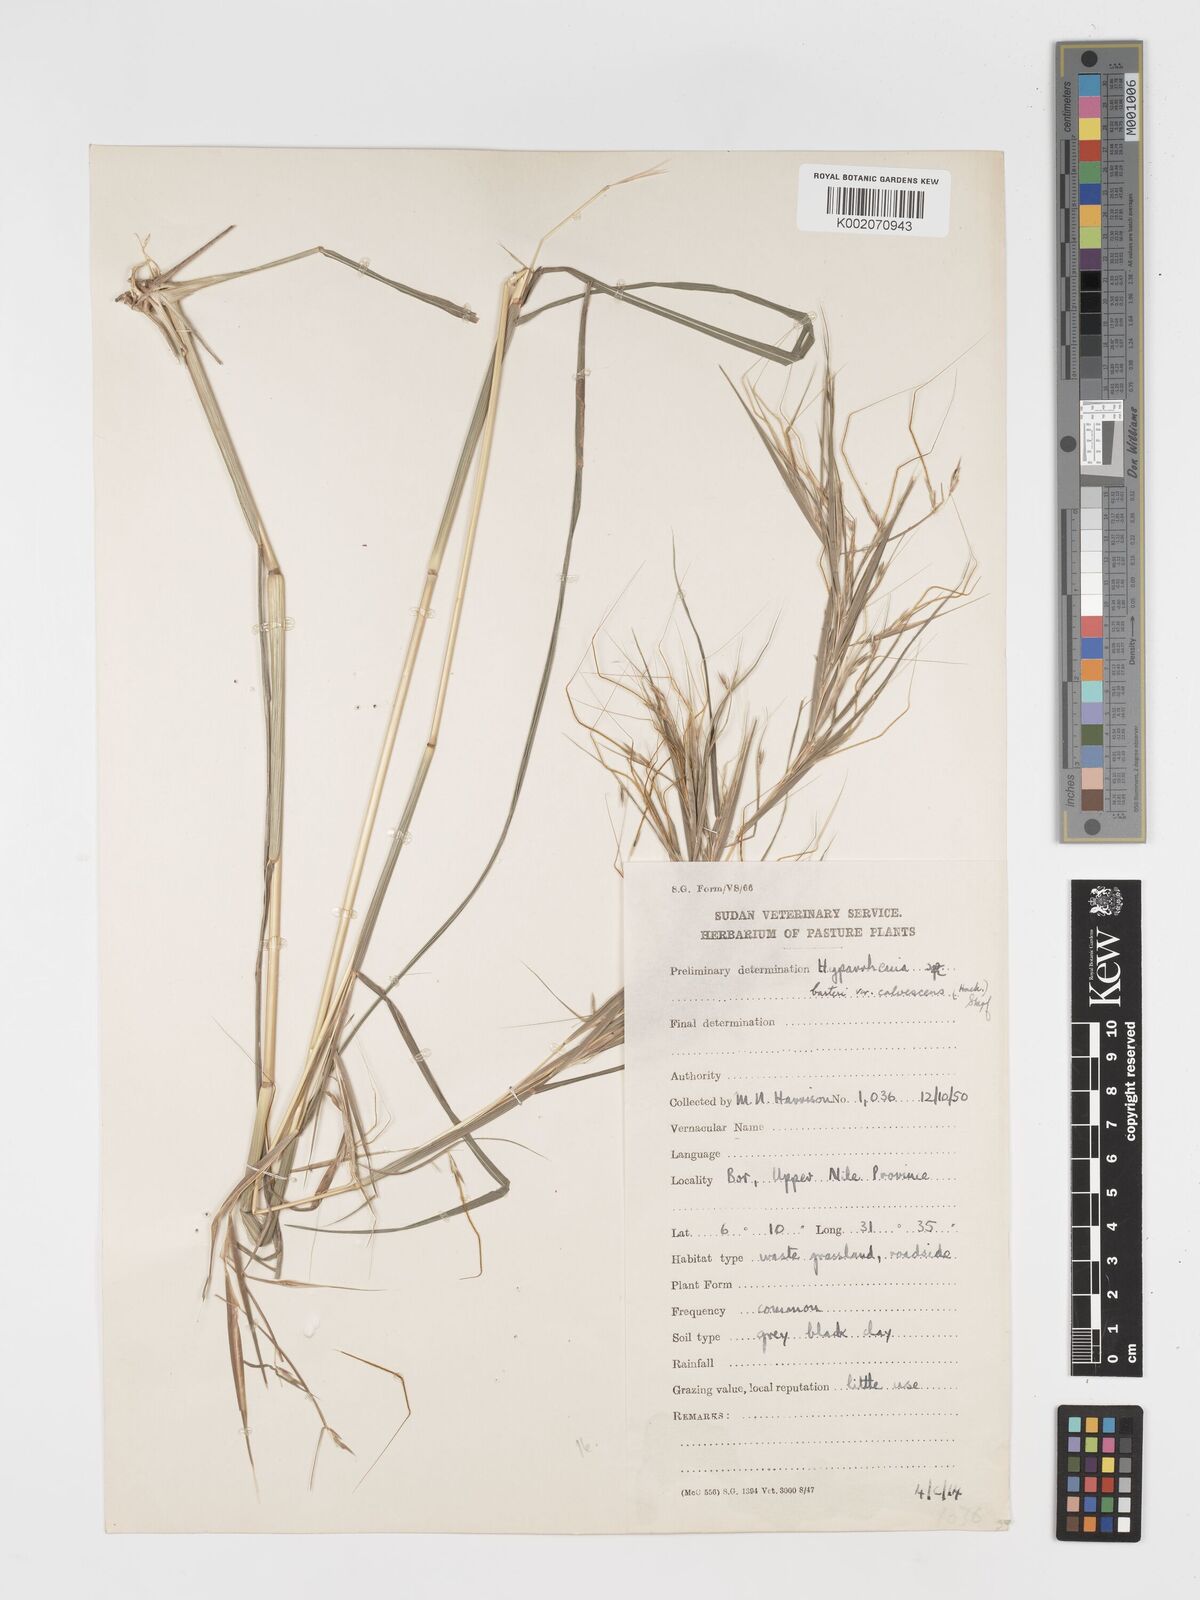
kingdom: Plantae
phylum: Tracheophyta
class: Liliopsida
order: Poales
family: Poaceae
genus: Hyparrhenia
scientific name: Hyparrhenia figariana
